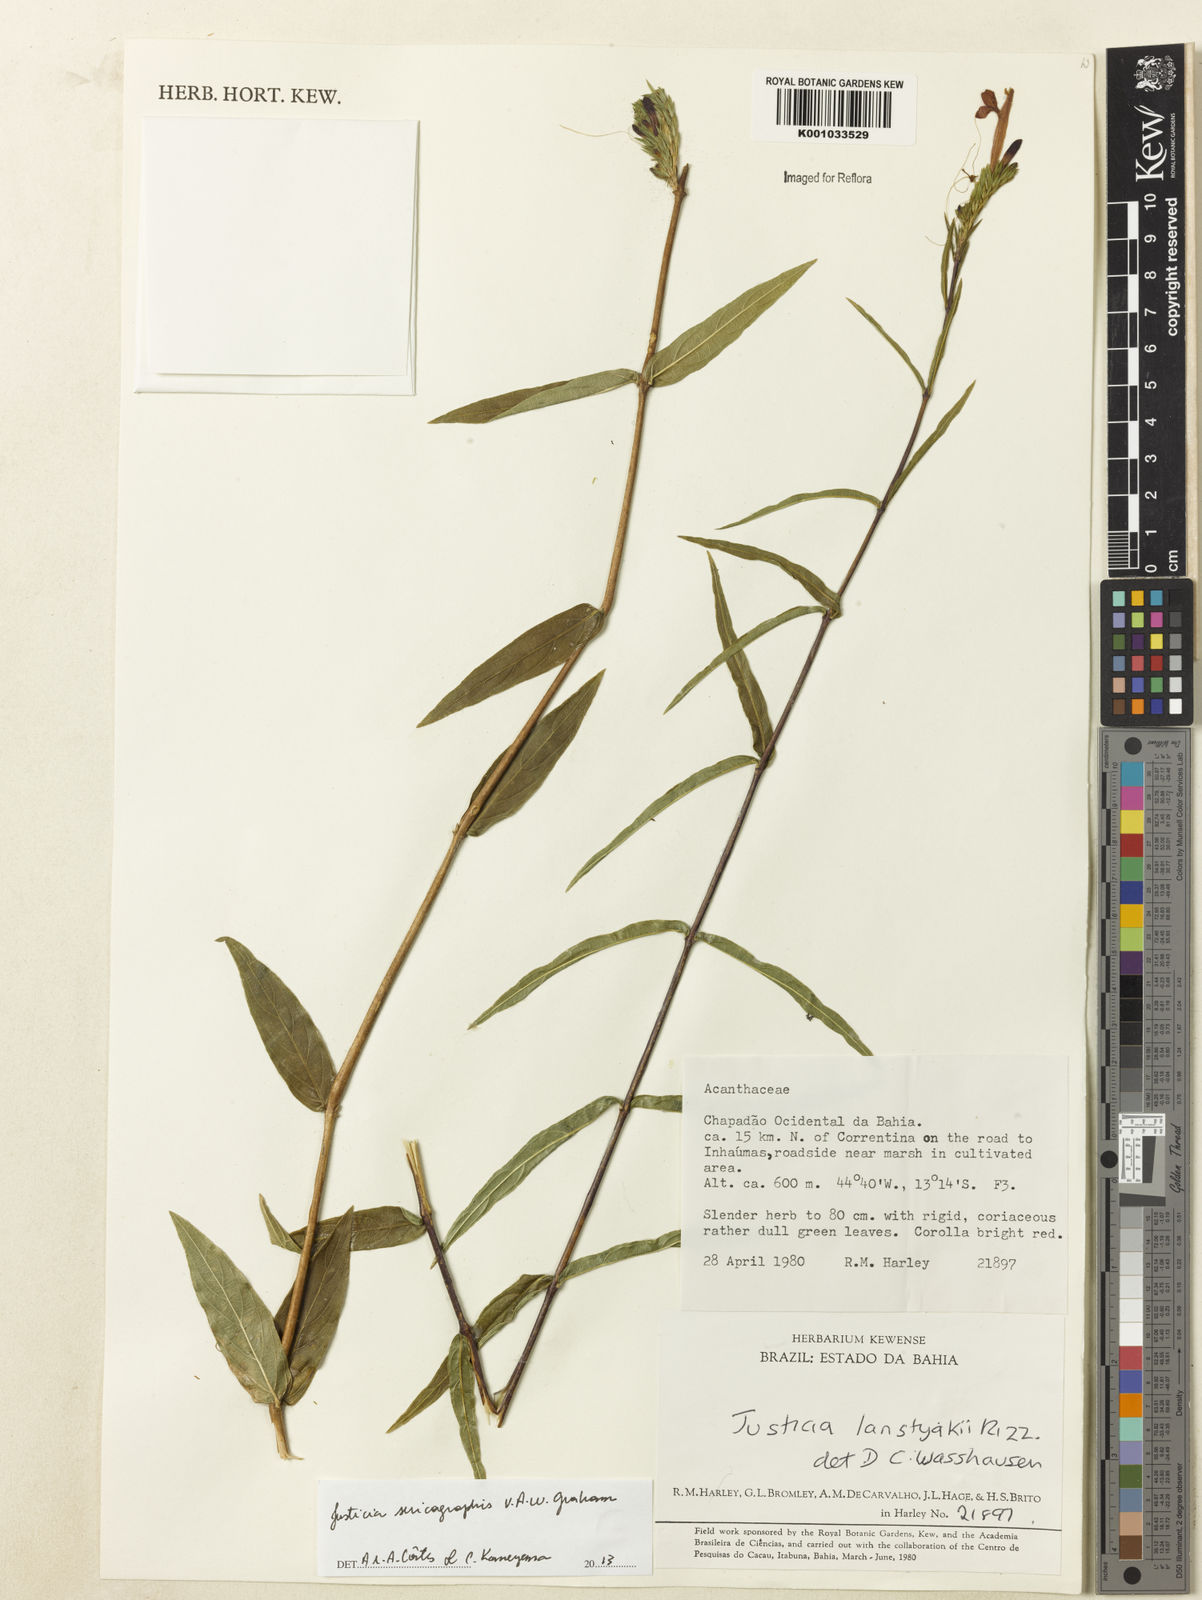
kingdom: Plantae
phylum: Tracheophyta
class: Magnoliopsida
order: Lamiales
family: Acanthaceae
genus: Dianthera
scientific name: Dianthera rigida
